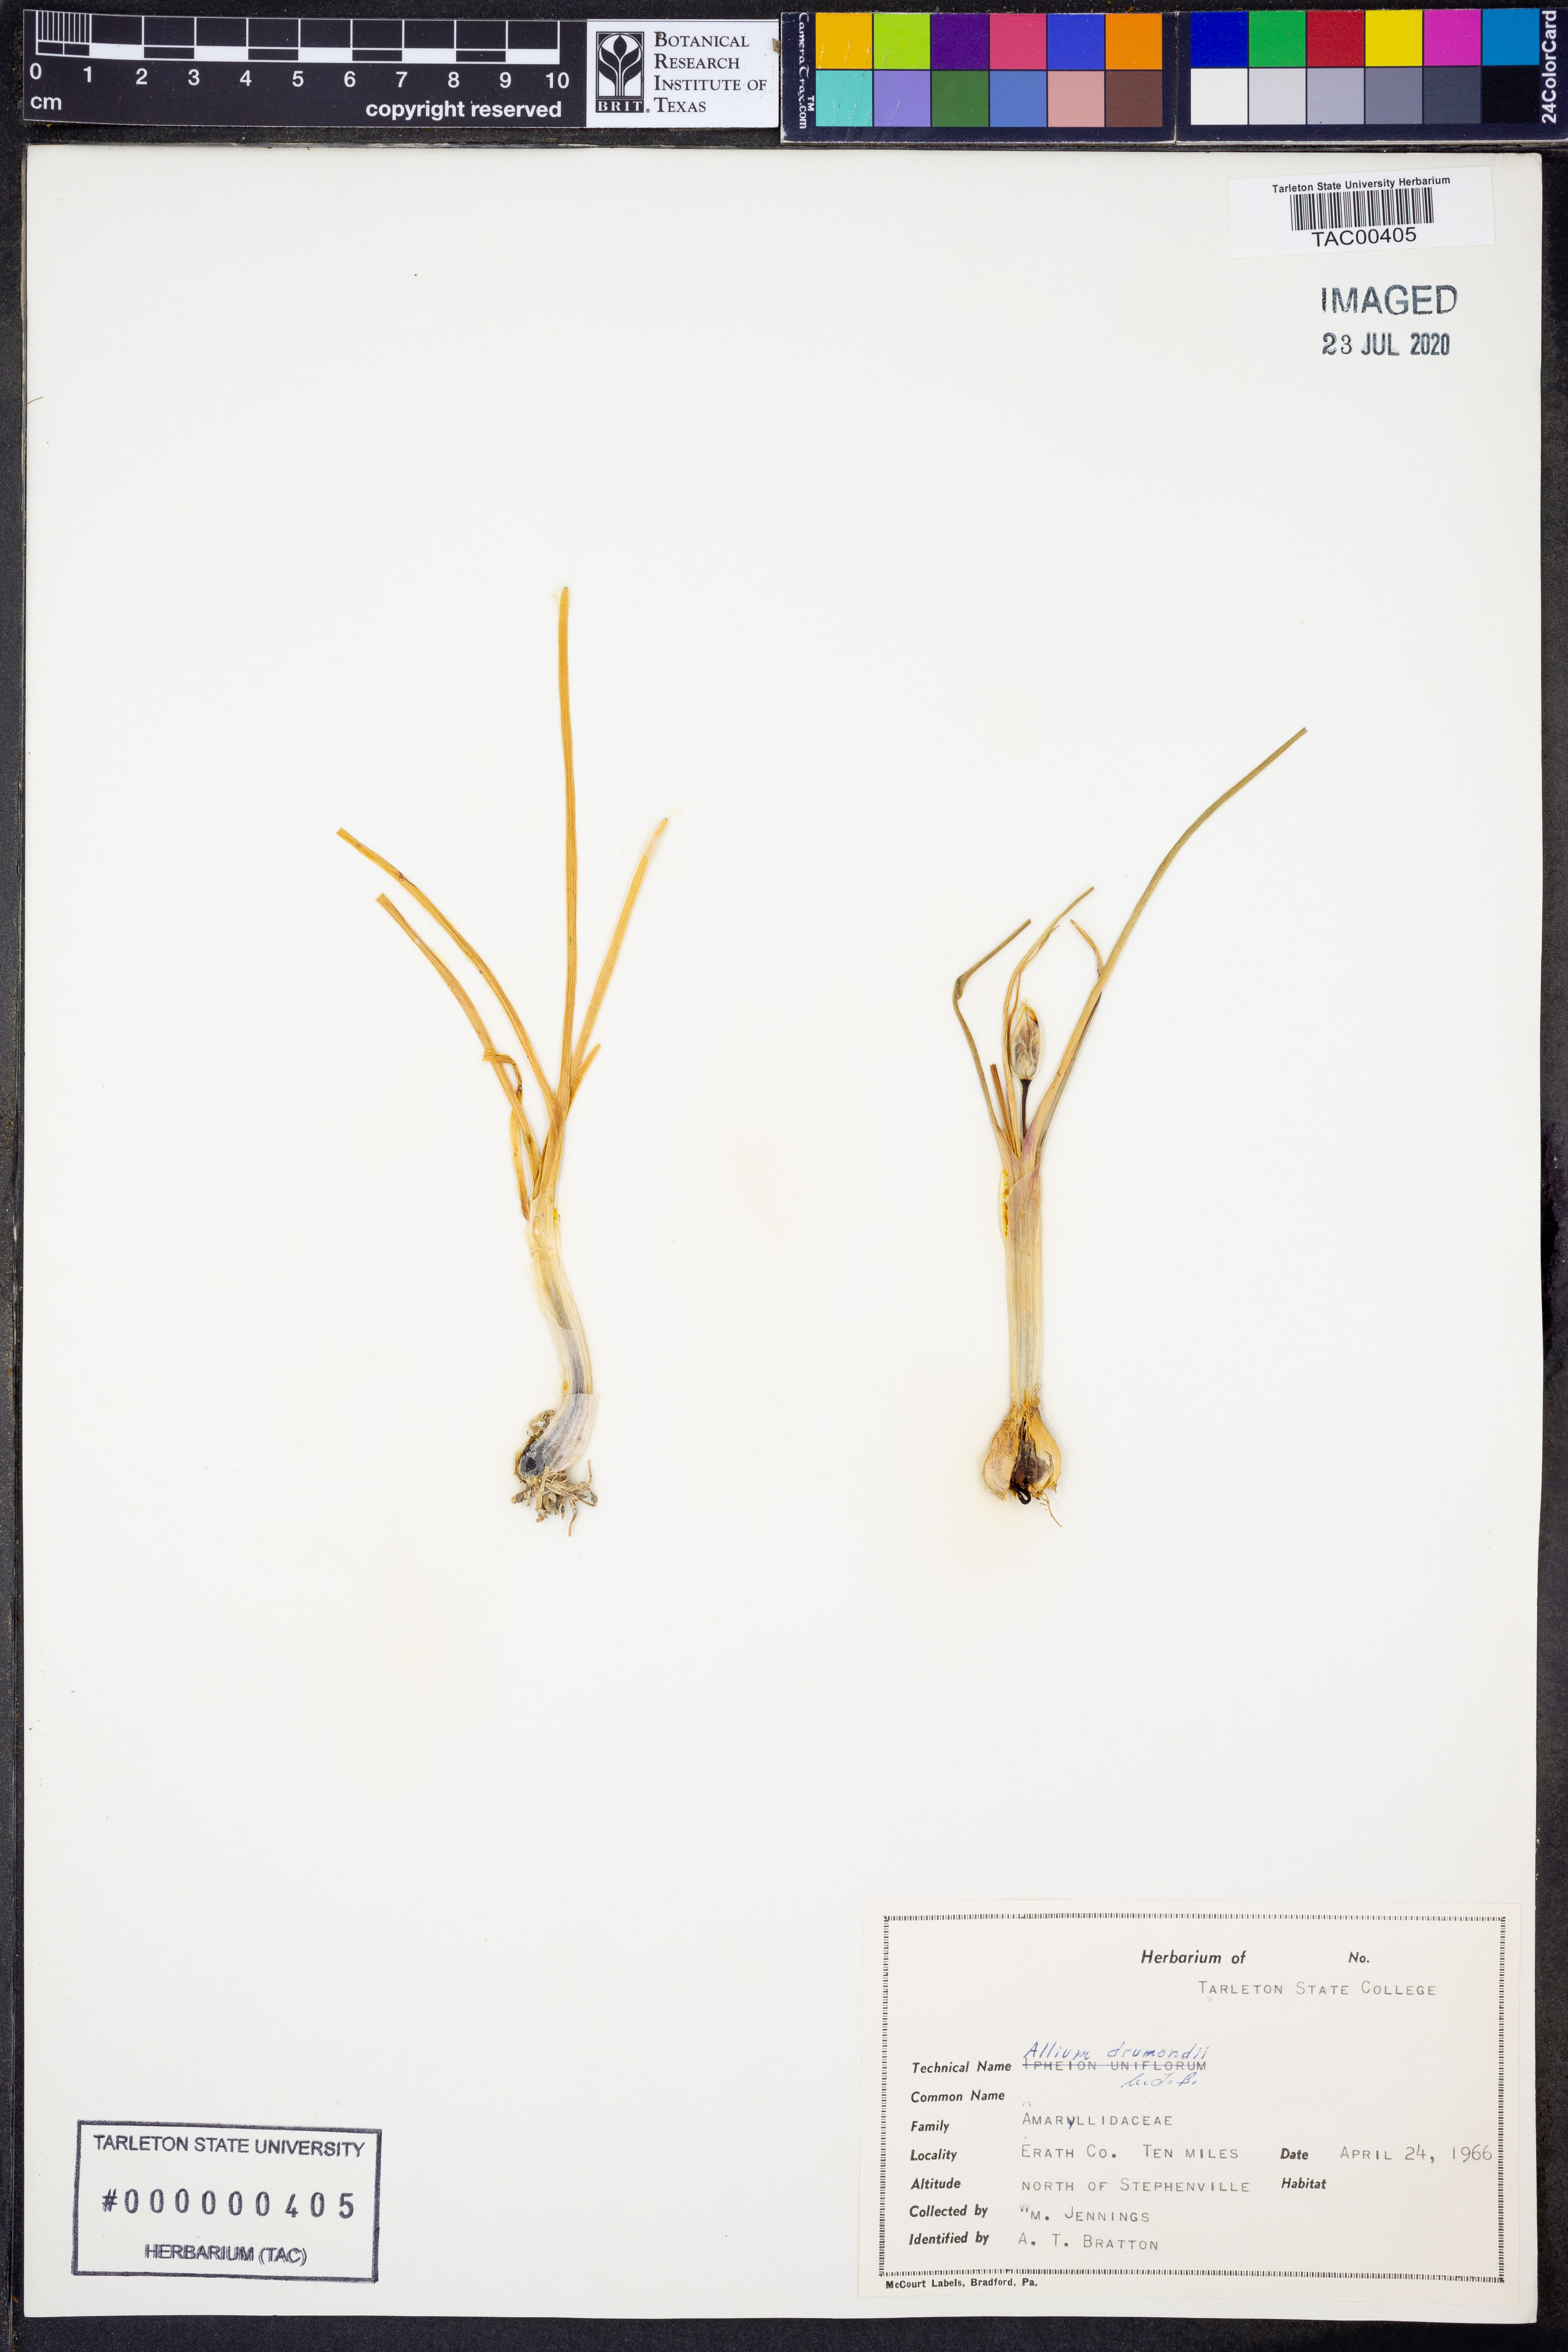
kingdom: Plantae
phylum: Tracheophyta
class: Liliopsida
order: Asparagales
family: Amaryllidaceae
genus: Allium
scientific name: Allium drummondii
